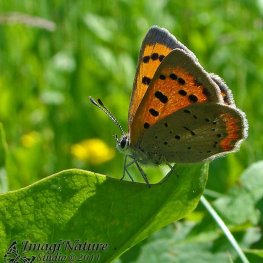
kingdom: Animalia
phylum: Arthropoda
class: Insecta
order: Lepidoptera
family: Lycaenidae
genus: Lycaena
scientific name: Lycaena phlaeas
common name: American Copper
